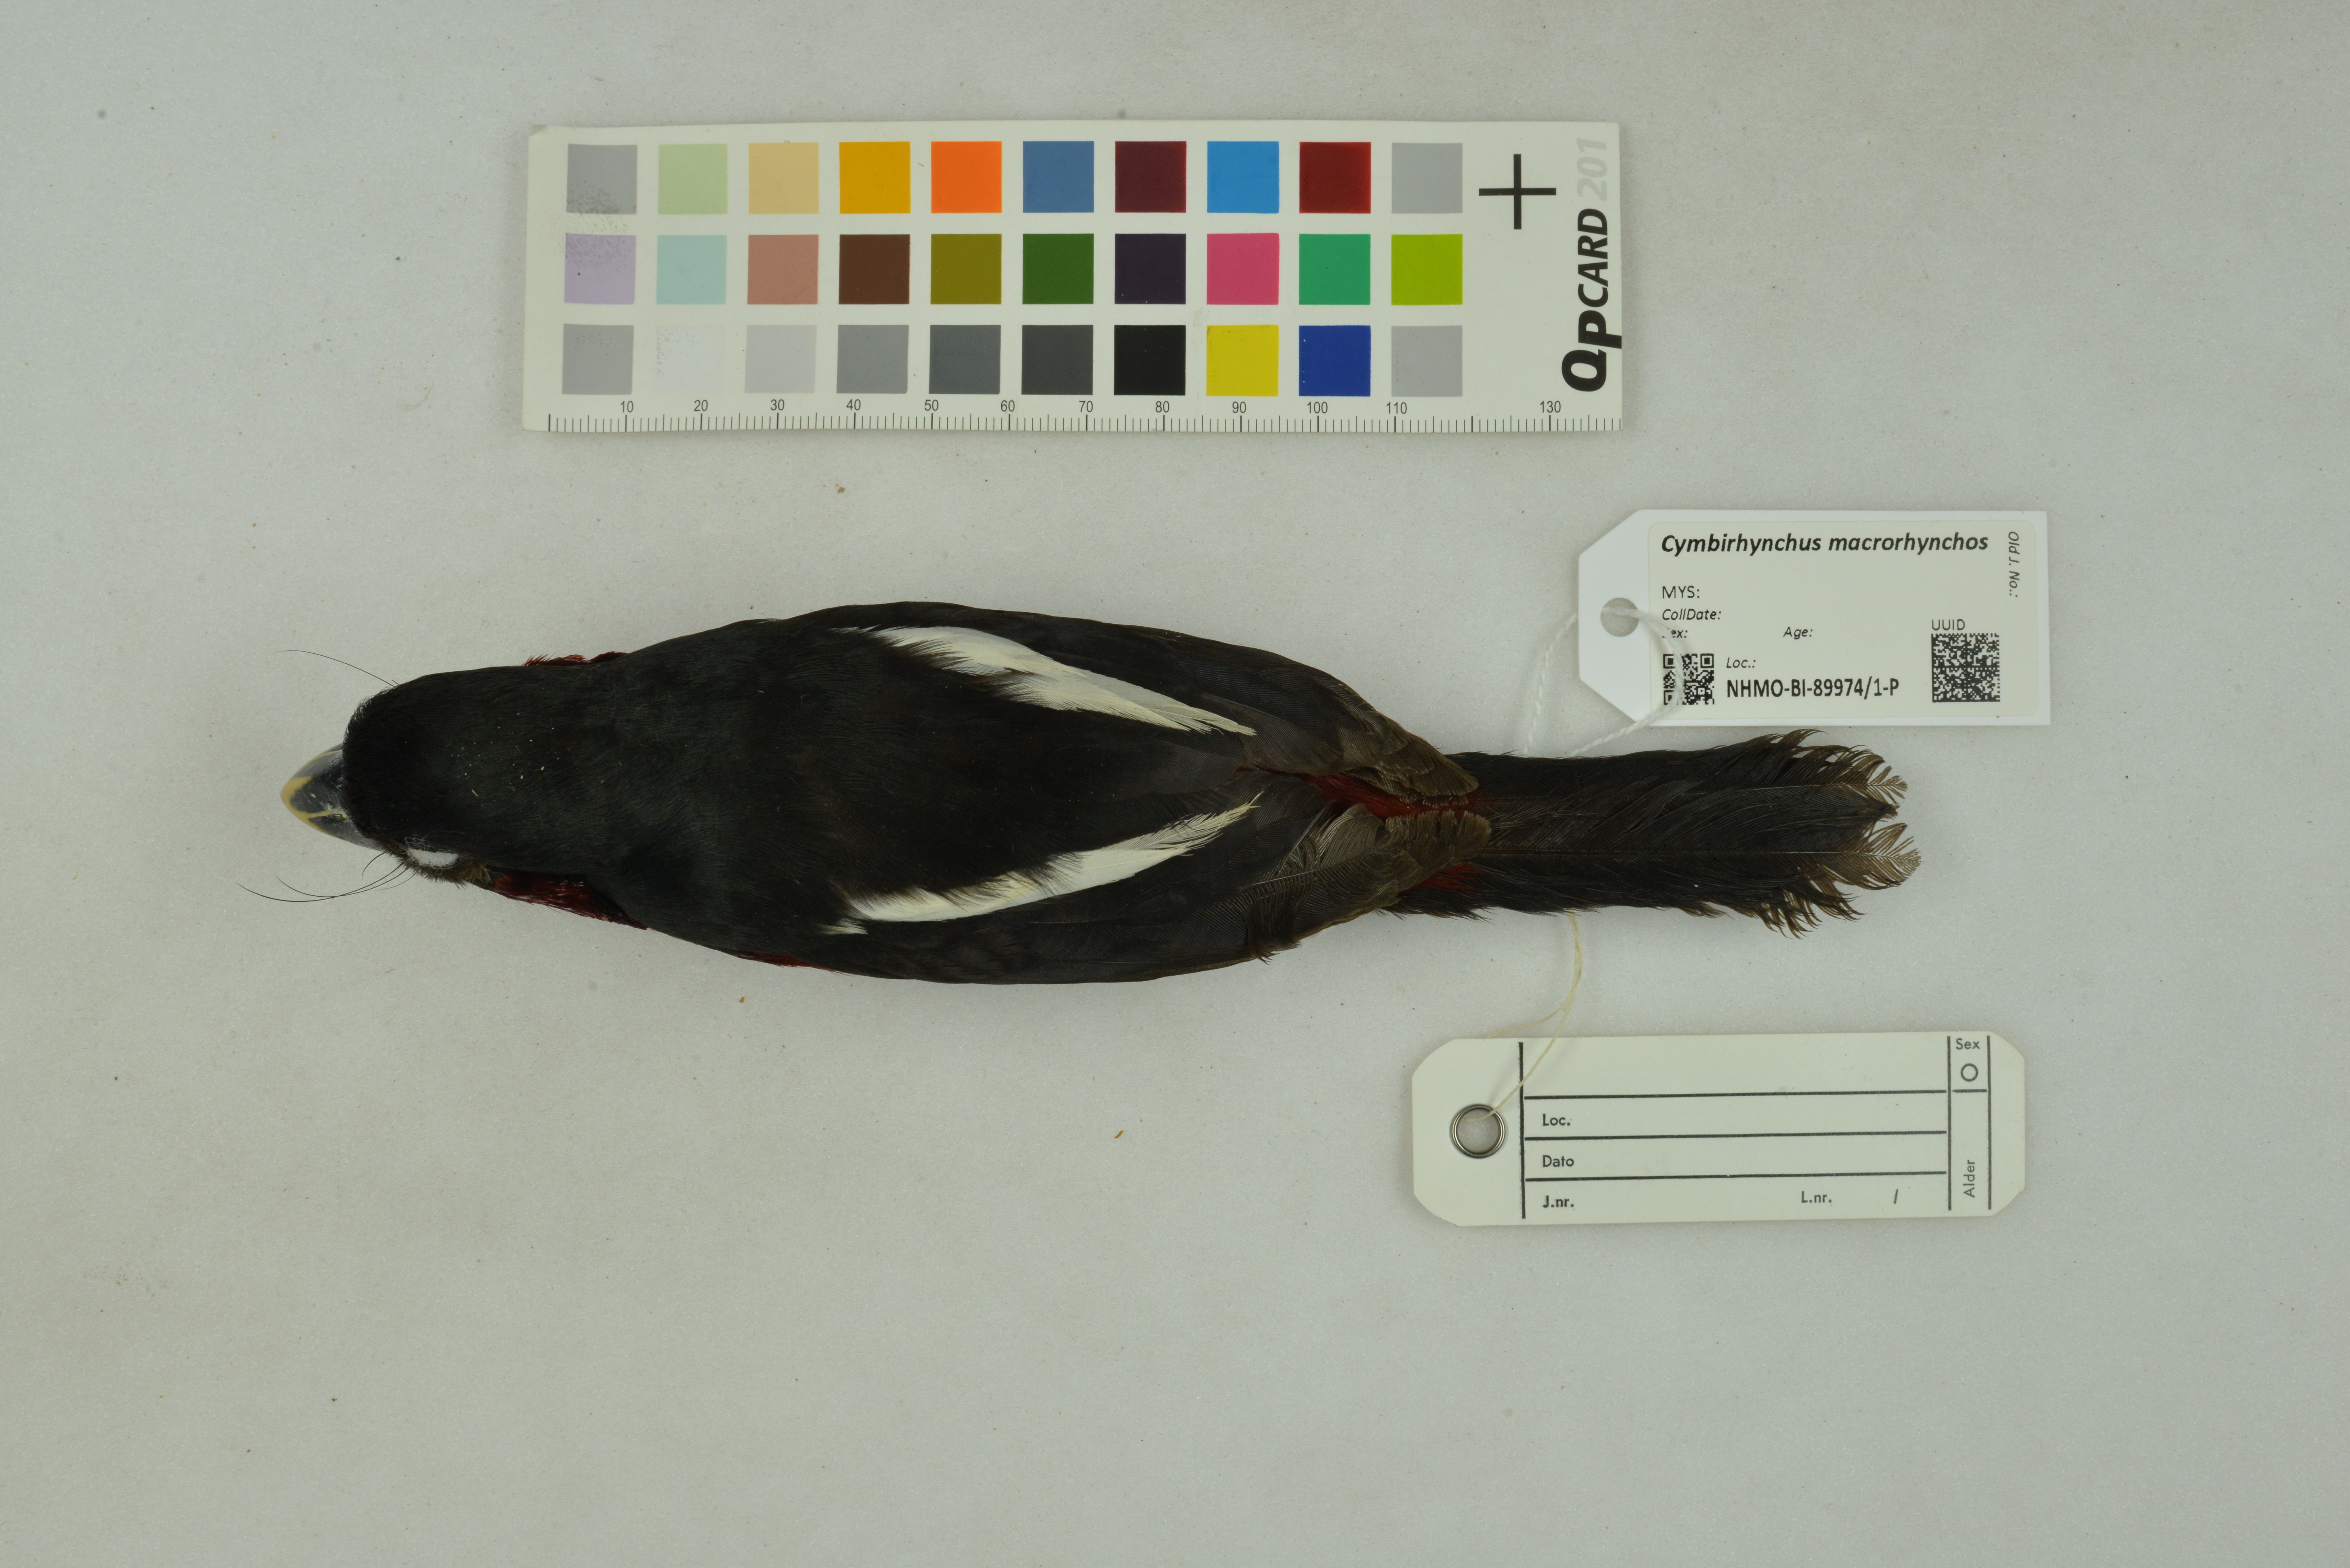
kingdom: Animalia
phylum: Chordata
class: Aves
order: Passeriformes
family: Eurylaimidae
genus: Cymbirhynchus
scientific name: Cymbirhynchus macrorhynchos
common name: Black-and-red broadbill
